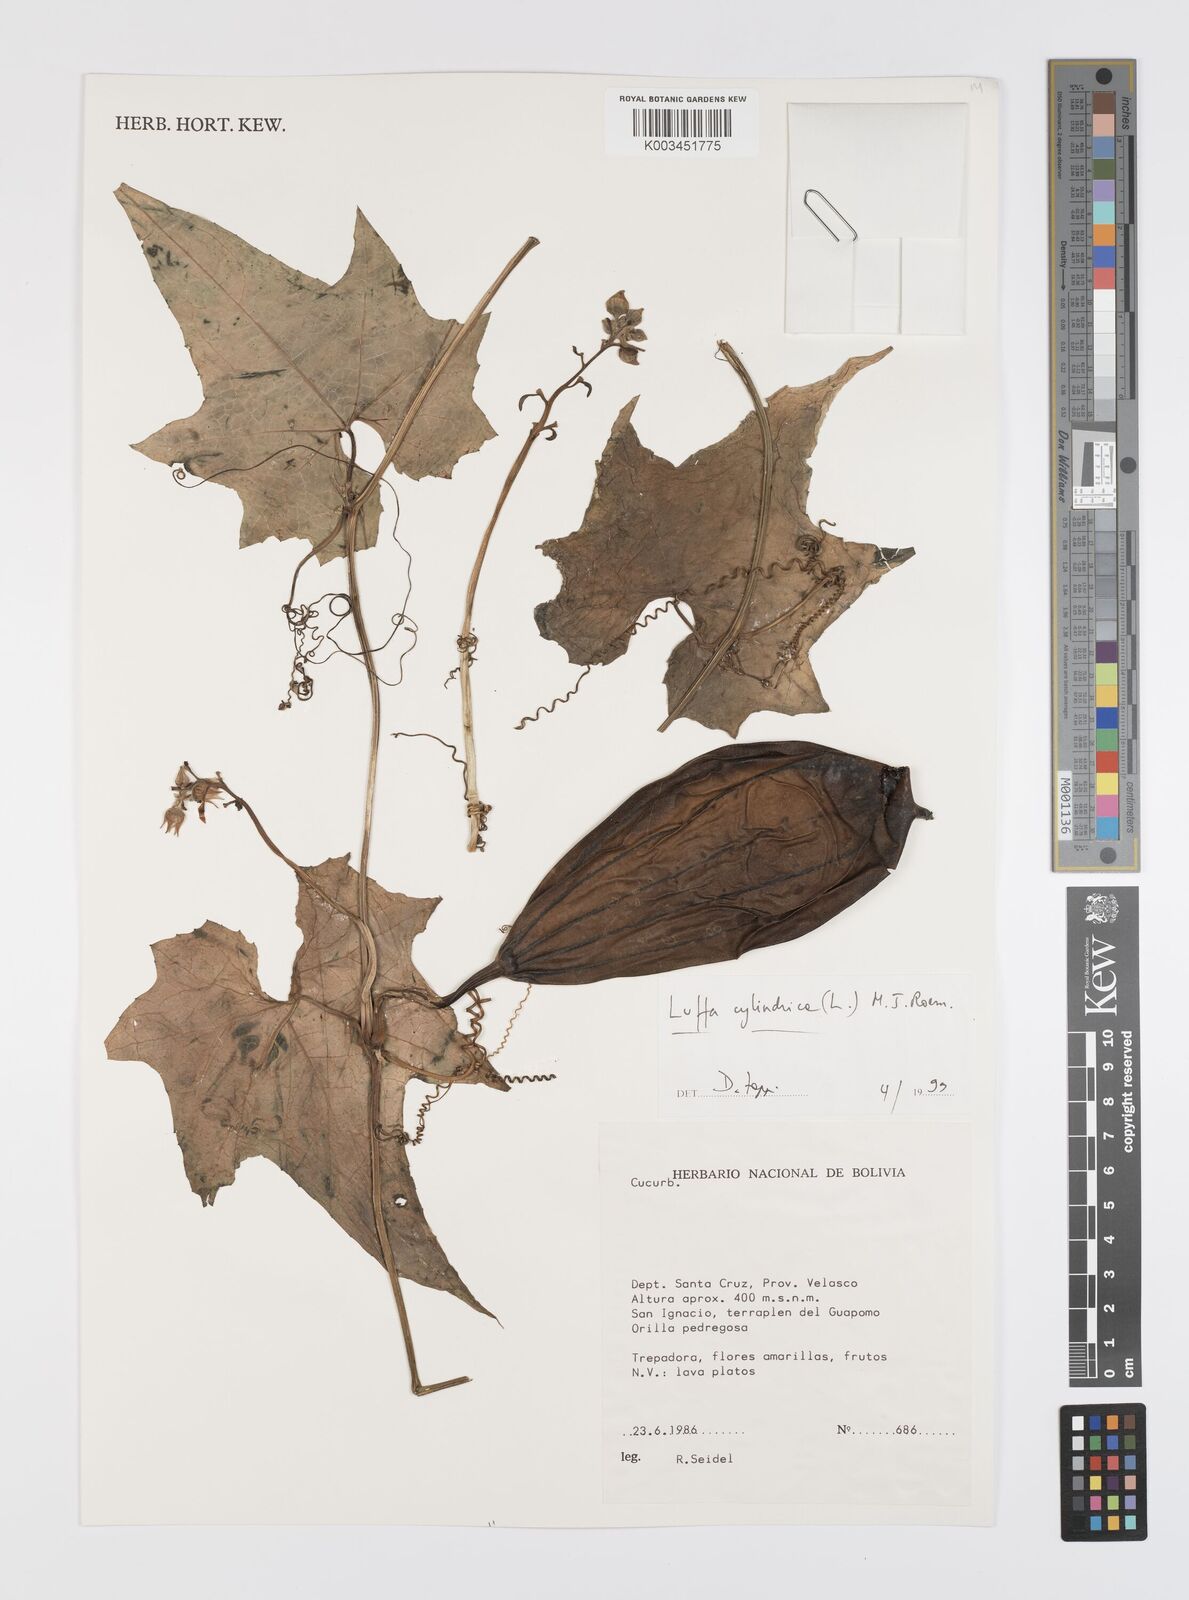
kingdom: Plantae
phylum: Tracheophyta
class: Magnoliopsida
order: Cucurbitales
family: Cucurbitaceae
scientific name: Cucurbitaceae
